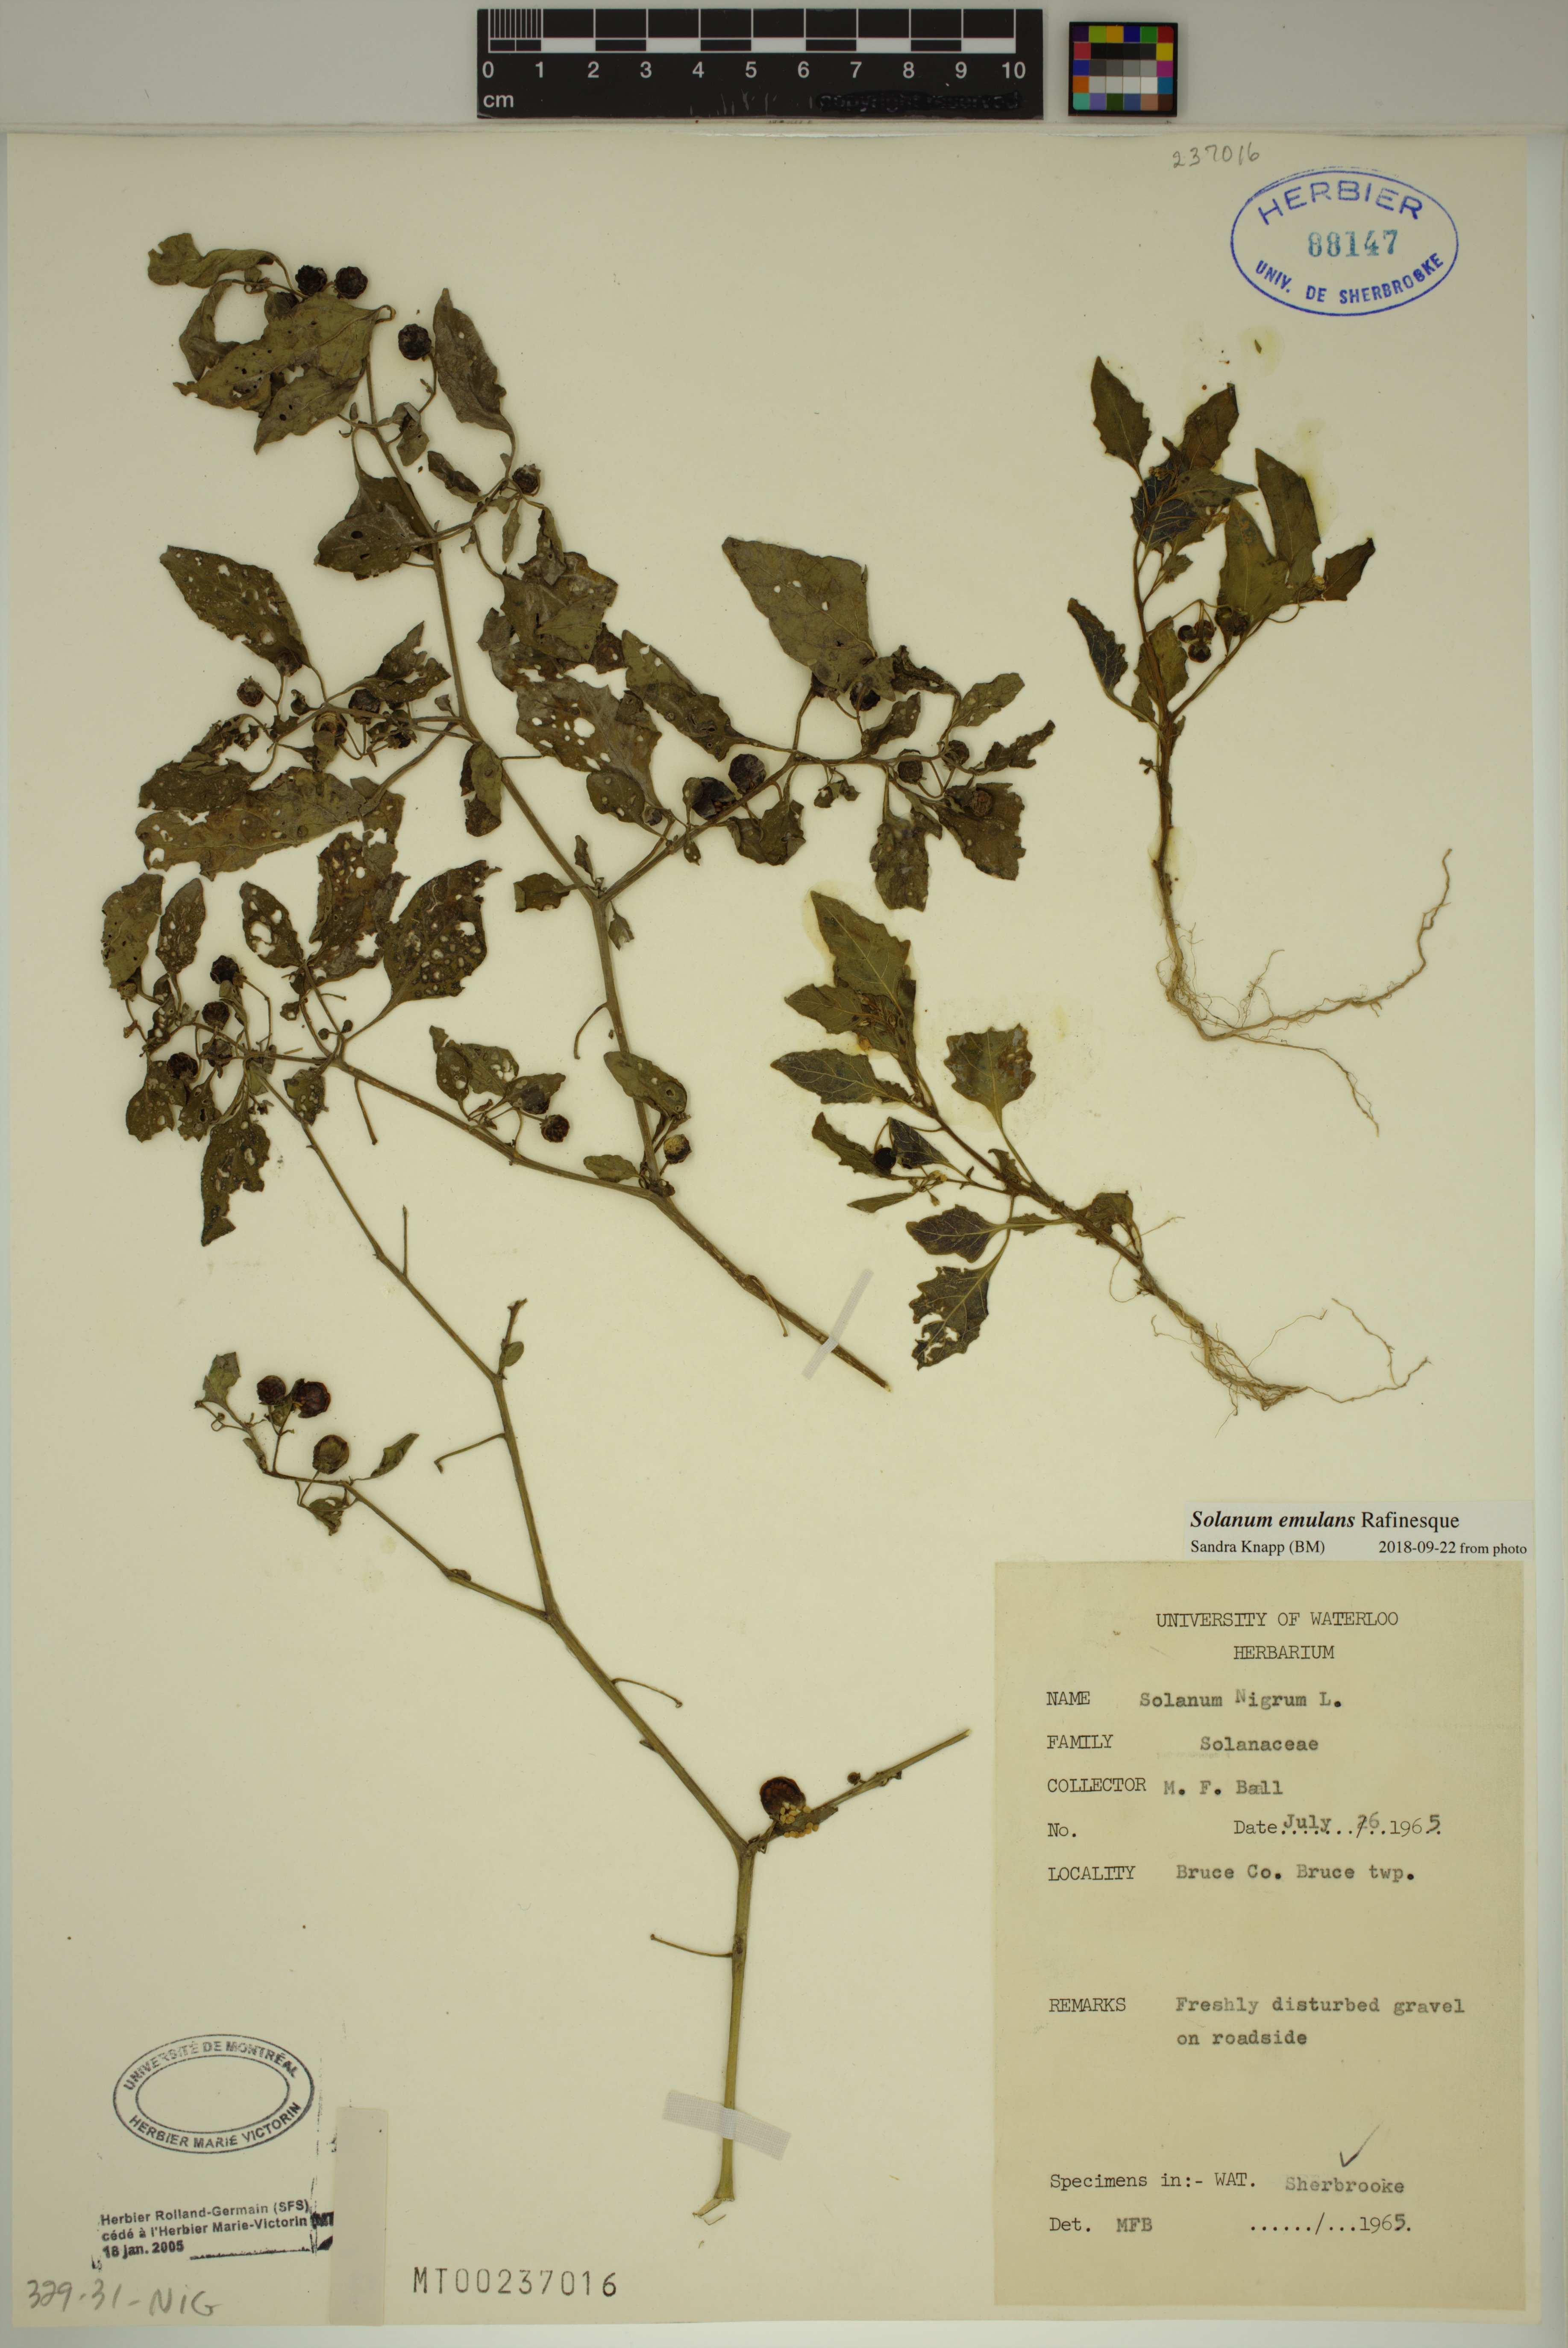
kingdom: Plantae
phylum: Tracheophyta
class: Magnoliopsida
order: Solanales
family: Solanaceae
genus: Solanum
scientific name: Solanum emulans
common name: Eastern black nightshade
